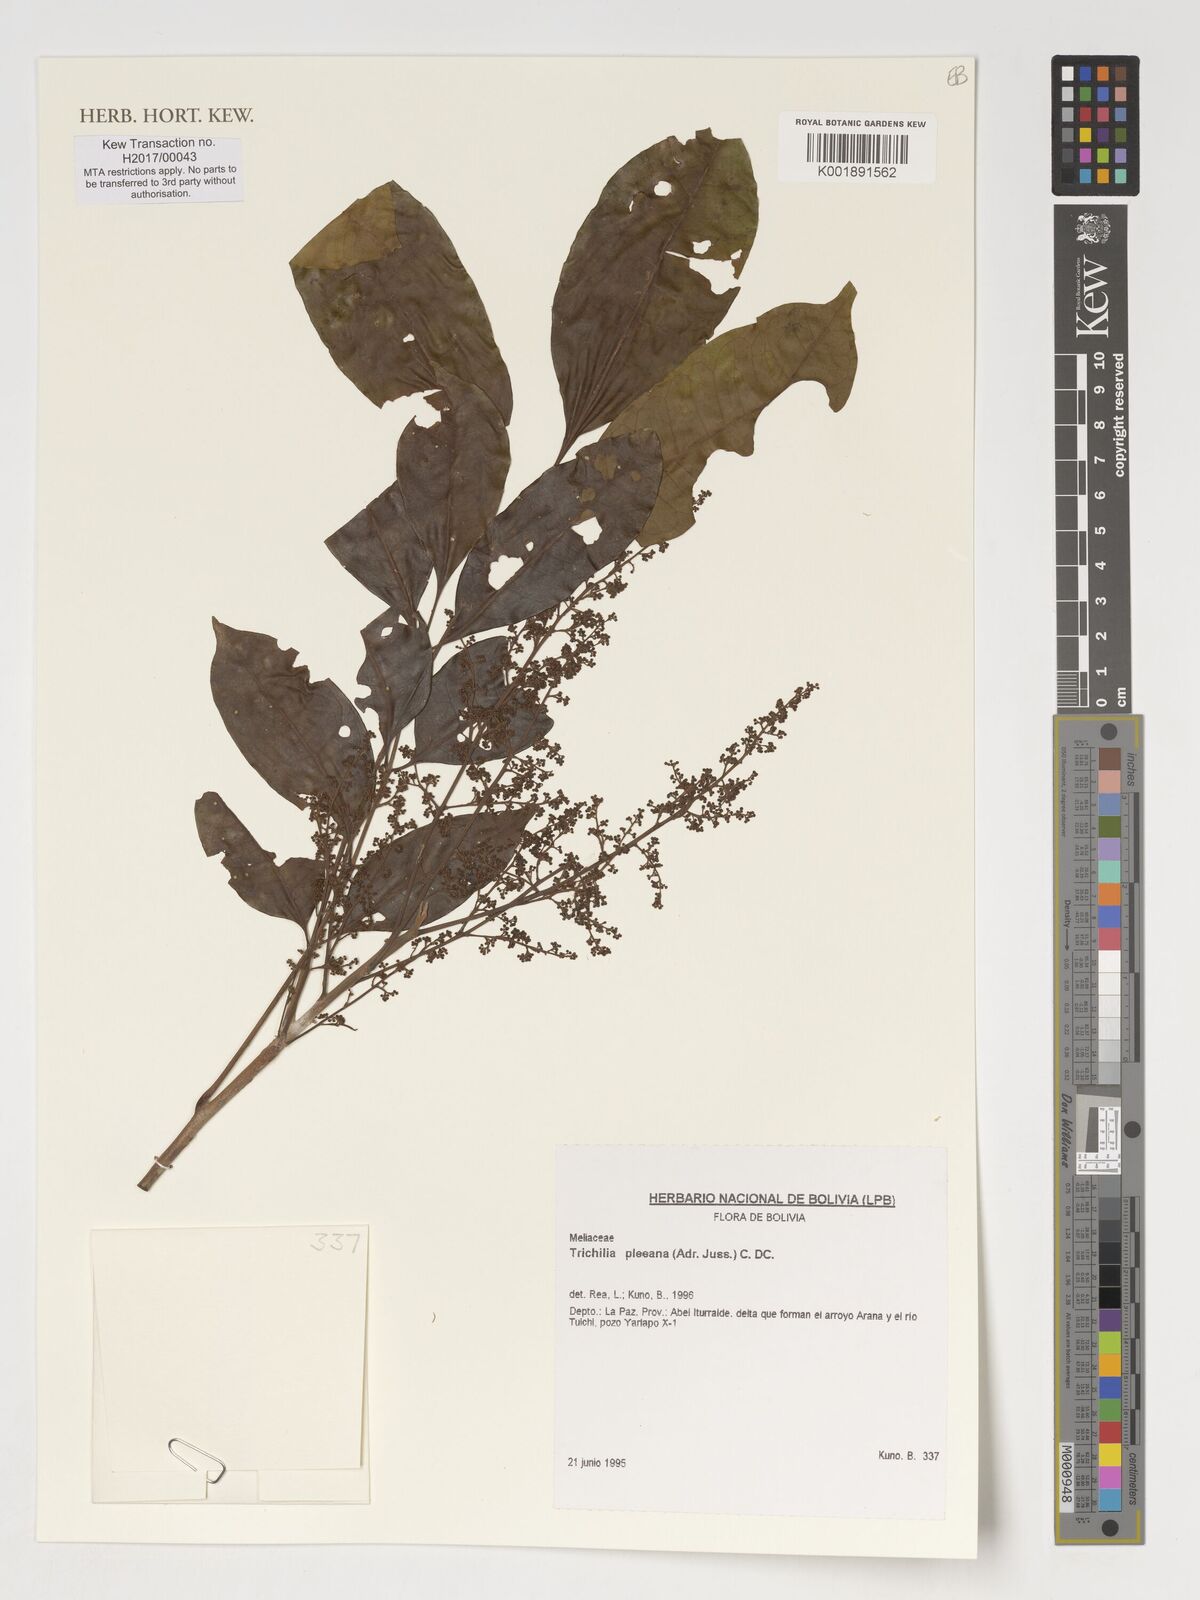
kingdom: Plantae
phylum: Tracheophyta
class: Magnoliopsida
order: Sapindales
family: Meliaceae
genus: Trichilia
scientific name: Trichilia pleeana
